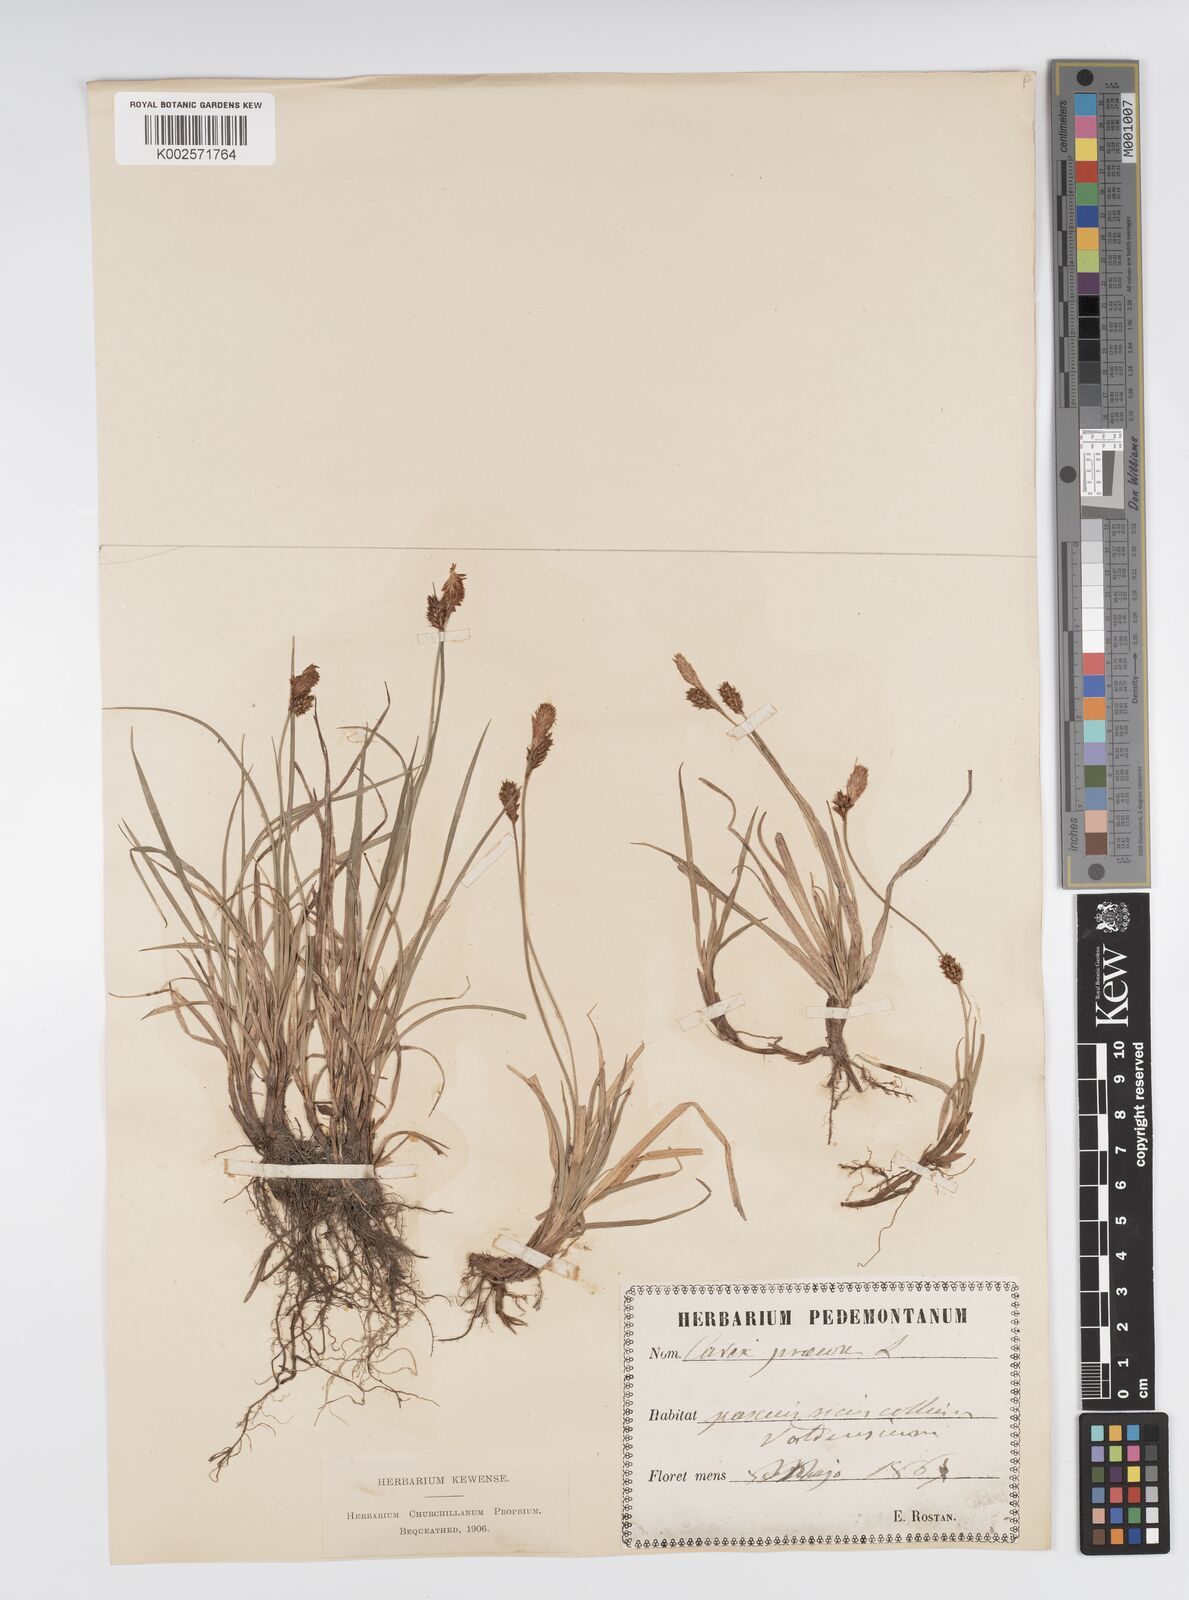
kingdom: Plantae
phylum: Tracheophyta
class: Liliopsida
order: Poales
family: Cyperaceae
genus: Carex
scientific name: Carex caryophyllea
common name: Spring sedge
